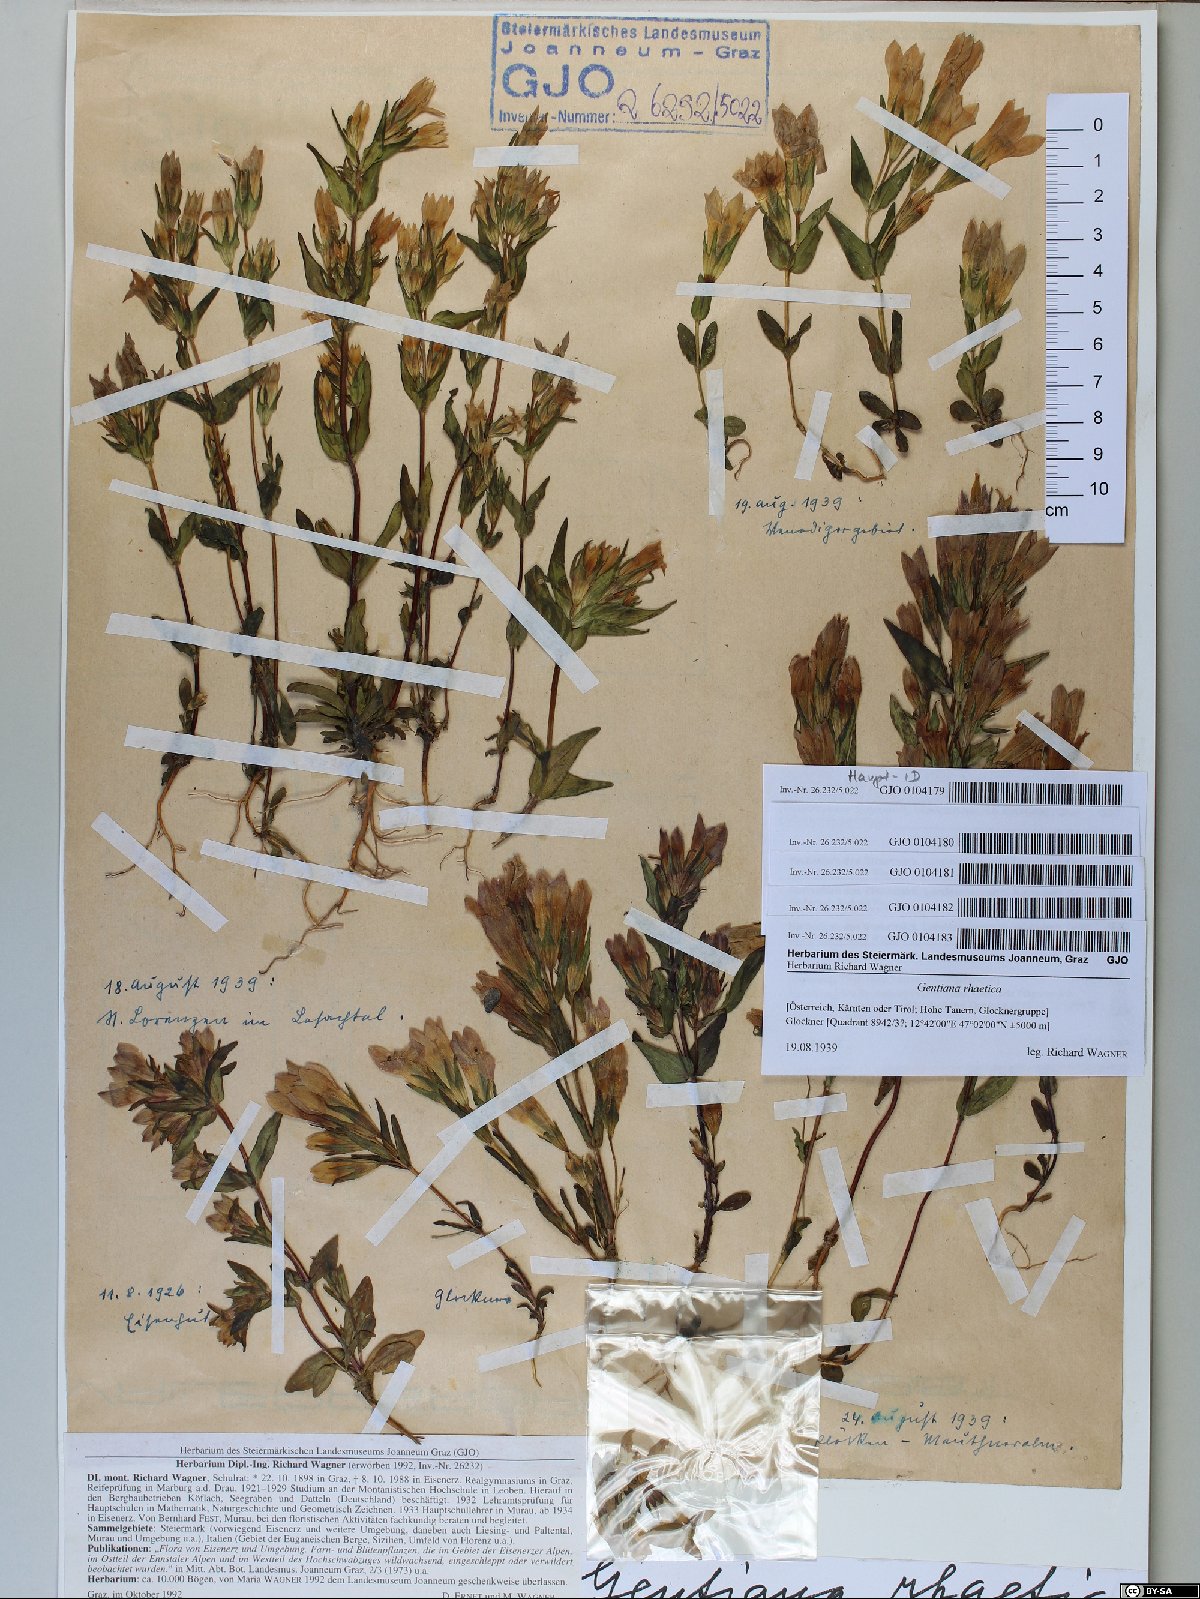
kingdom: Plantae
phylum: Tracheophyta
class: Magnoliopsida
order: Gentianales
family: Gentianaceae
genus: Gentianella
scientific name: Gentianella rhaetica
